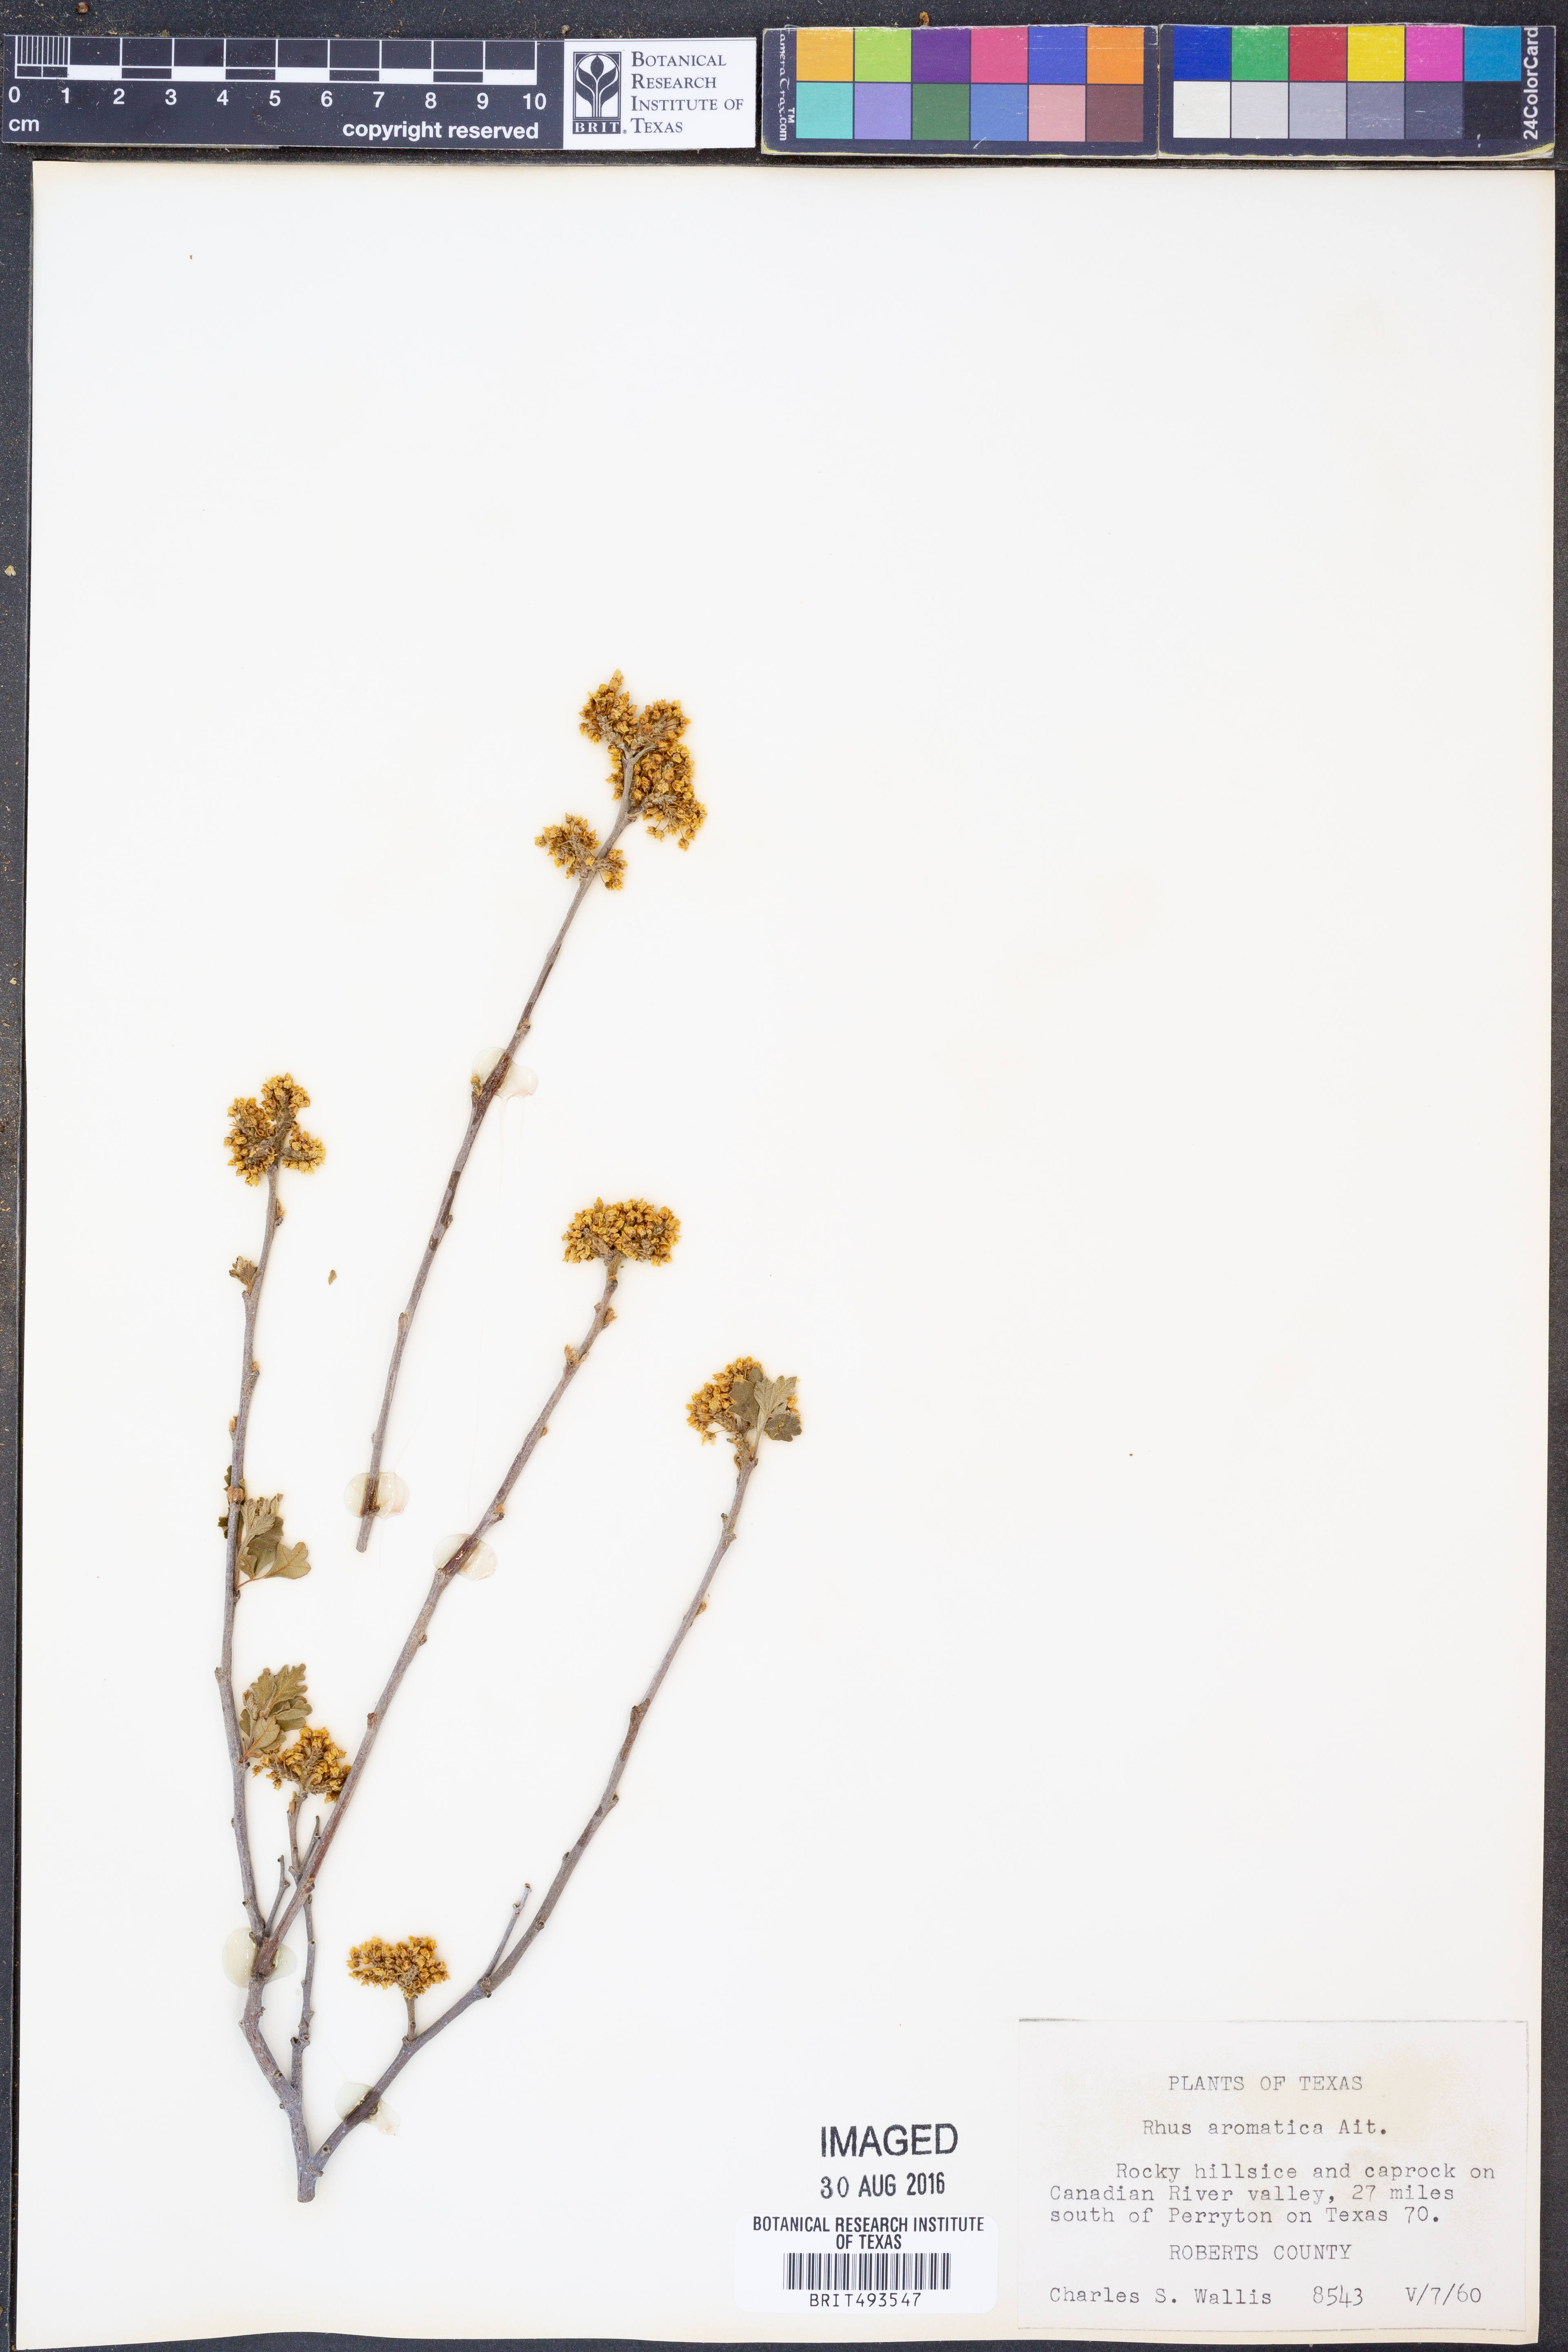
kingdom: Plantae
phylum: Tracheophyta
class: Magnoliopsida
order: Sapindales
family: Anacardiaceae
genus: Rhus
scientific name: Rhus aromatica
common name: Aromatic sumac
